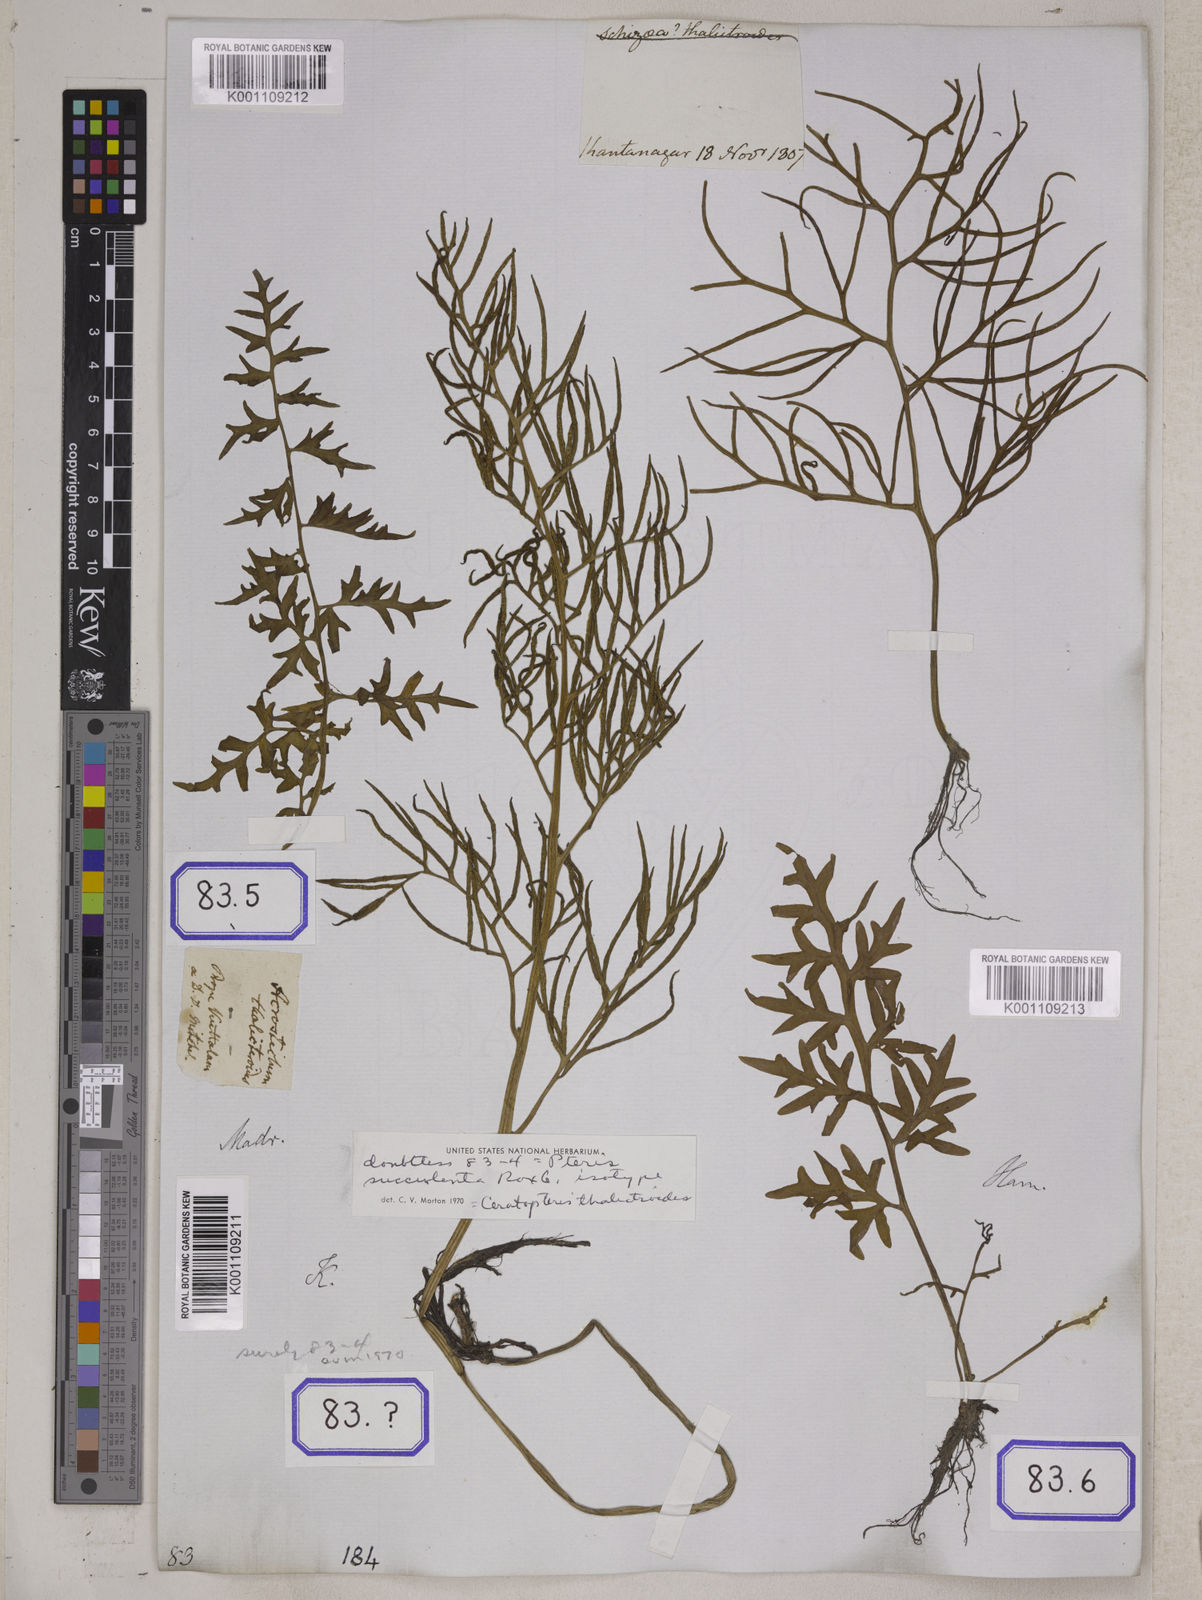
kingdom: Plantae
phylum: Tracheophyta
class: Polypodiopsida
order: Polypodiales
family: Pteridaceae
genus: Ceratopteris
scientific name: Ceratopteris thalictroides
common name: Water fern
